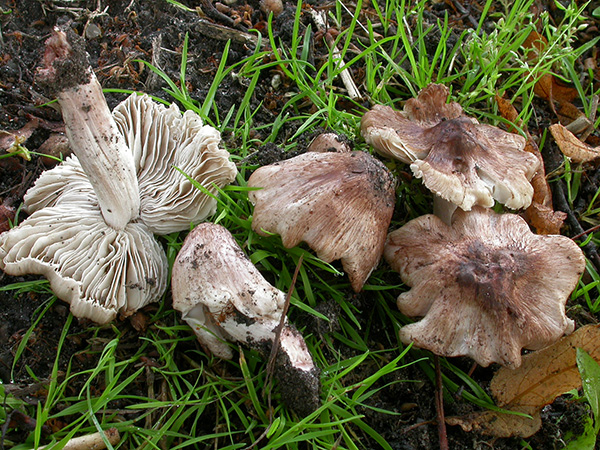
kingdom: Fungi
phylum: Basidiomycota
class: Agaricomycetes
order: Agaricales
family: Inocybaceae
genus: Inosperma
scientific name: Inosperma adaequatum
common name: vinrød trævlhat
